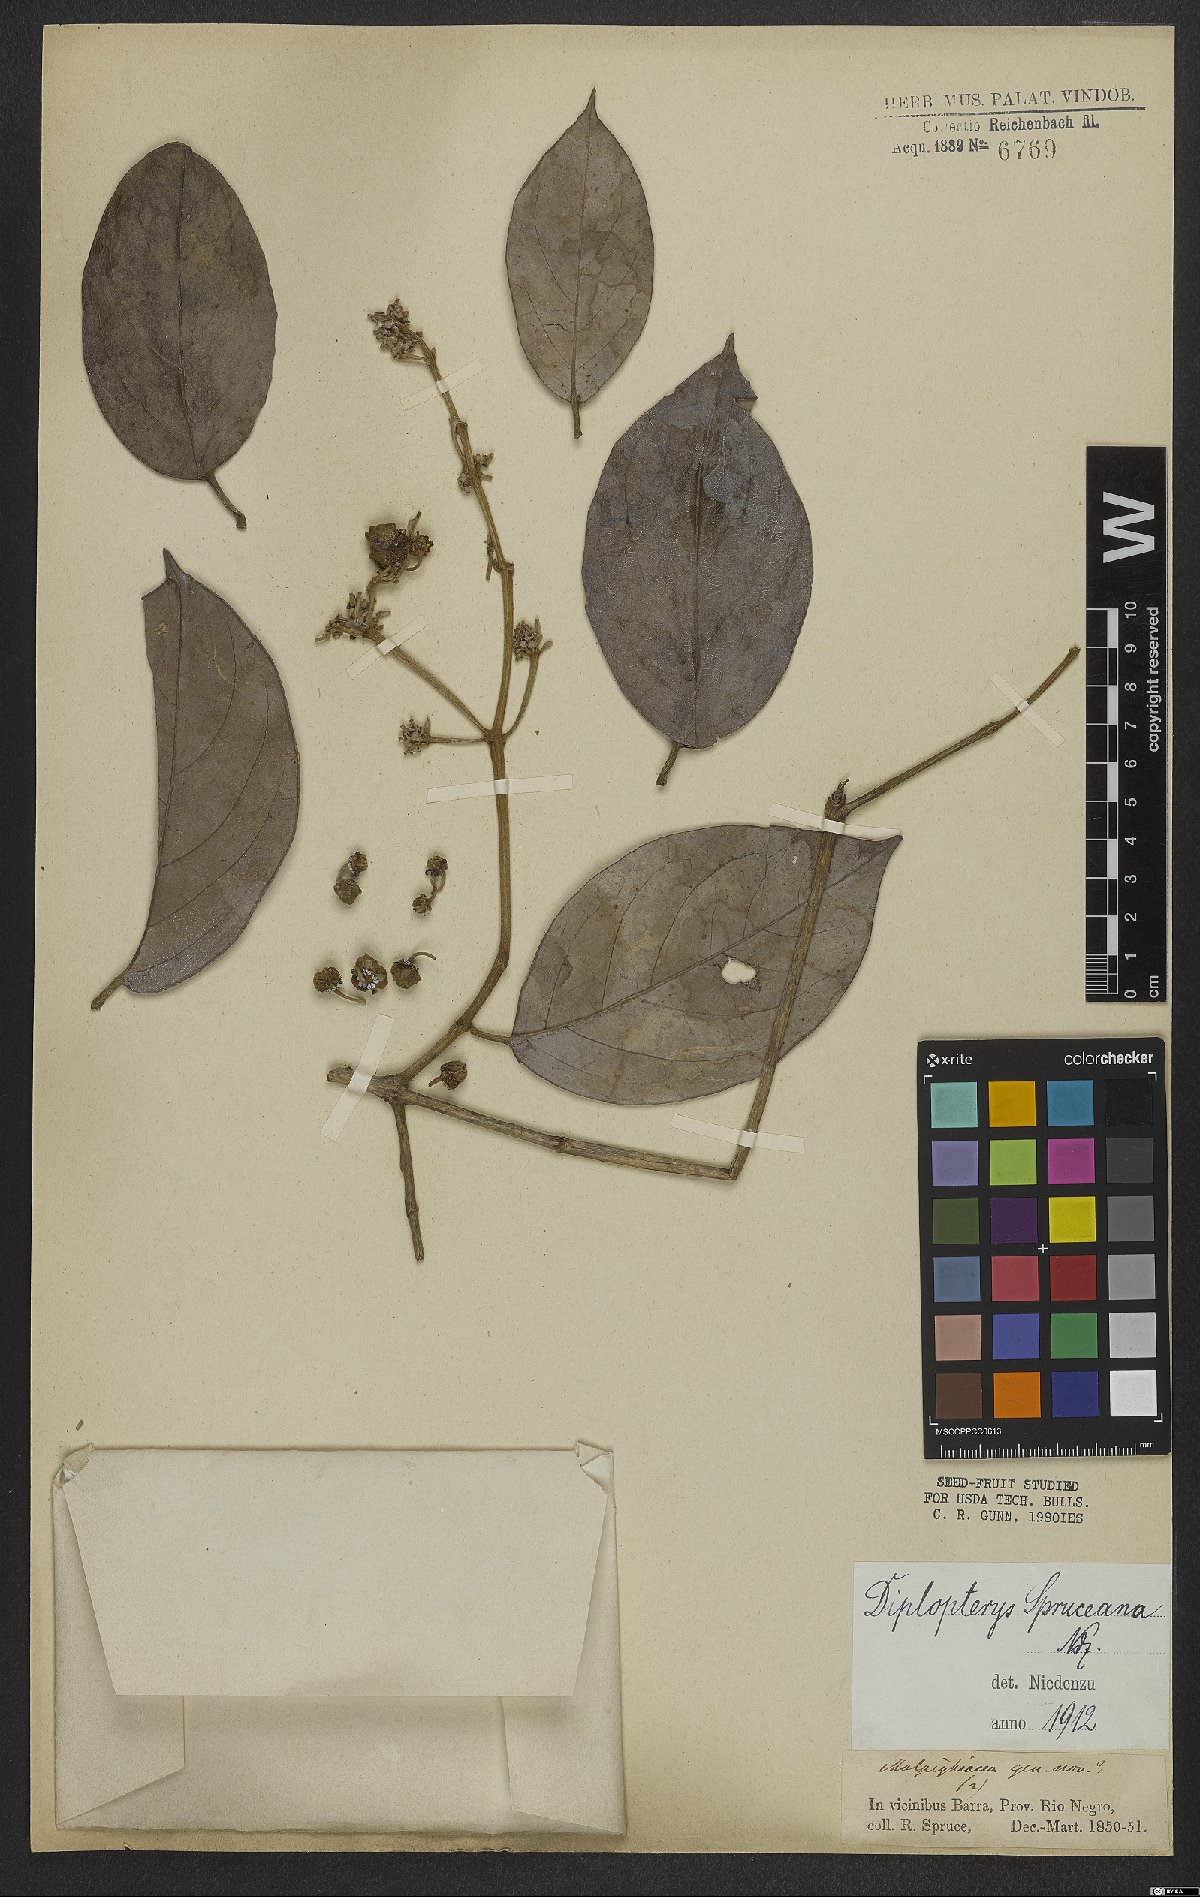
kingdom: Plantae
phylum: Tracheophyta
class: Magnoliopsida
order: Malpighiales
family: Malpighiaceae
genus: Malpighiodes
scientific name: Malpighiodes bracteosa
